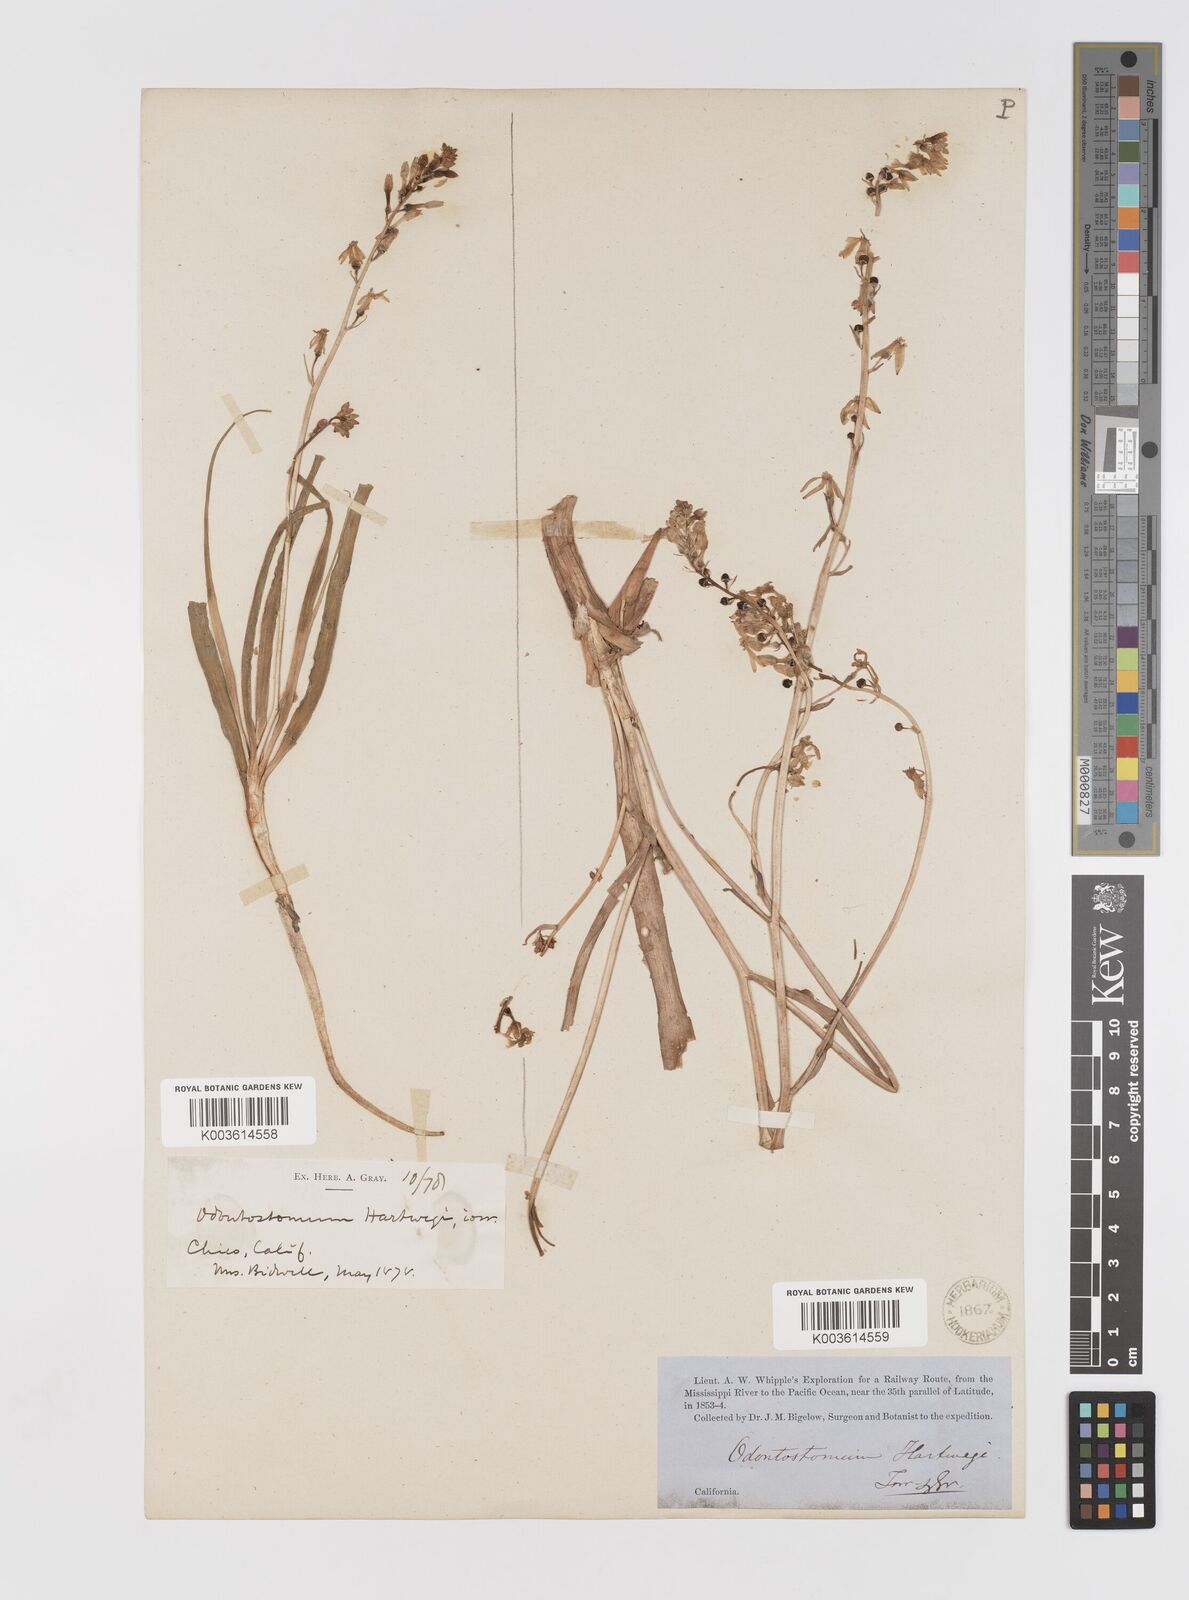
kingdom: Plantae
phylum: Tracheophyta
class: Liliopsida
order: Asparagales
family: Tecophilaeaceae
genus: Odontostomum
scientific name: Odontostomum hartwegii
